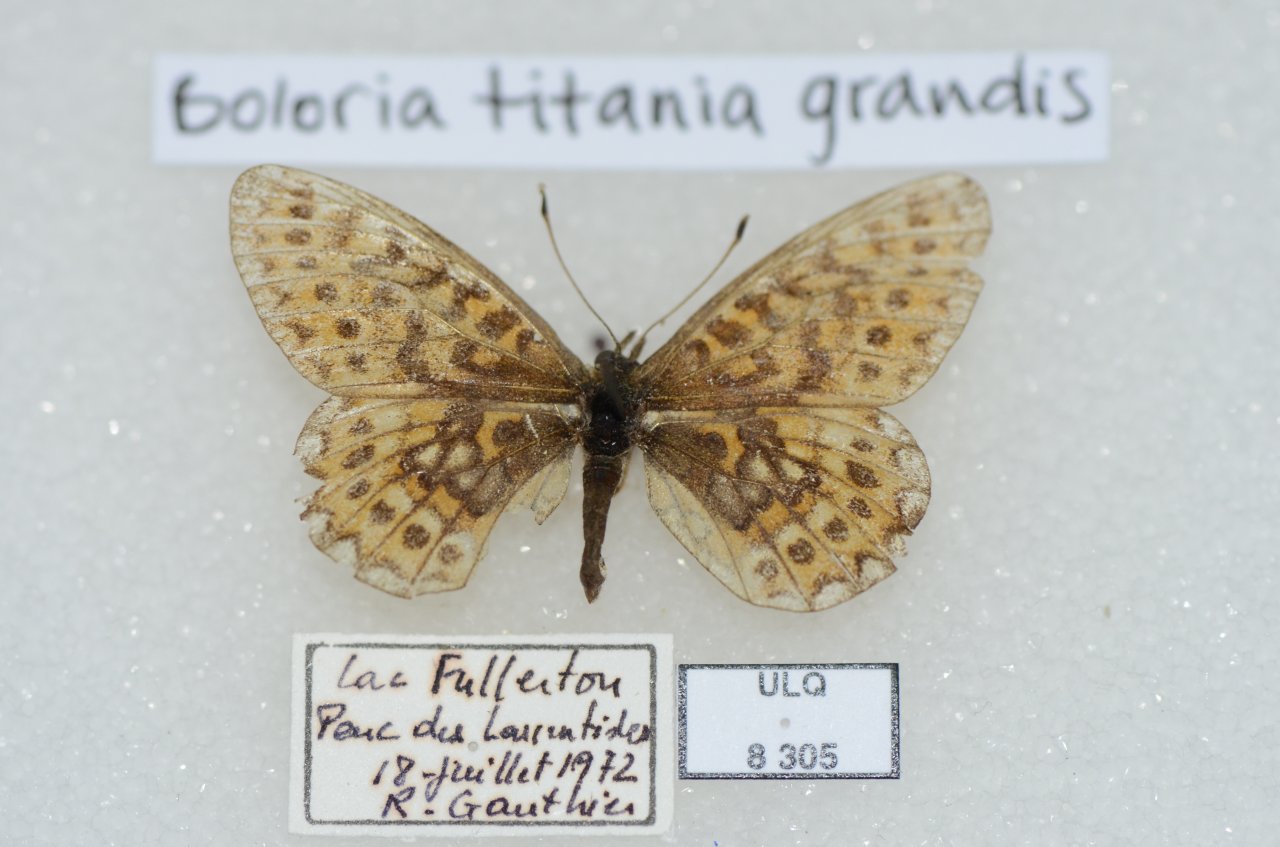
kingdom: Animalia
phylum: Arthropoda
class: Insecta
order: Lepidoptera
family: Nymphalidae
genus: Boloria
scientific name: Boloria eunomia
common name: Bog Fritillary
